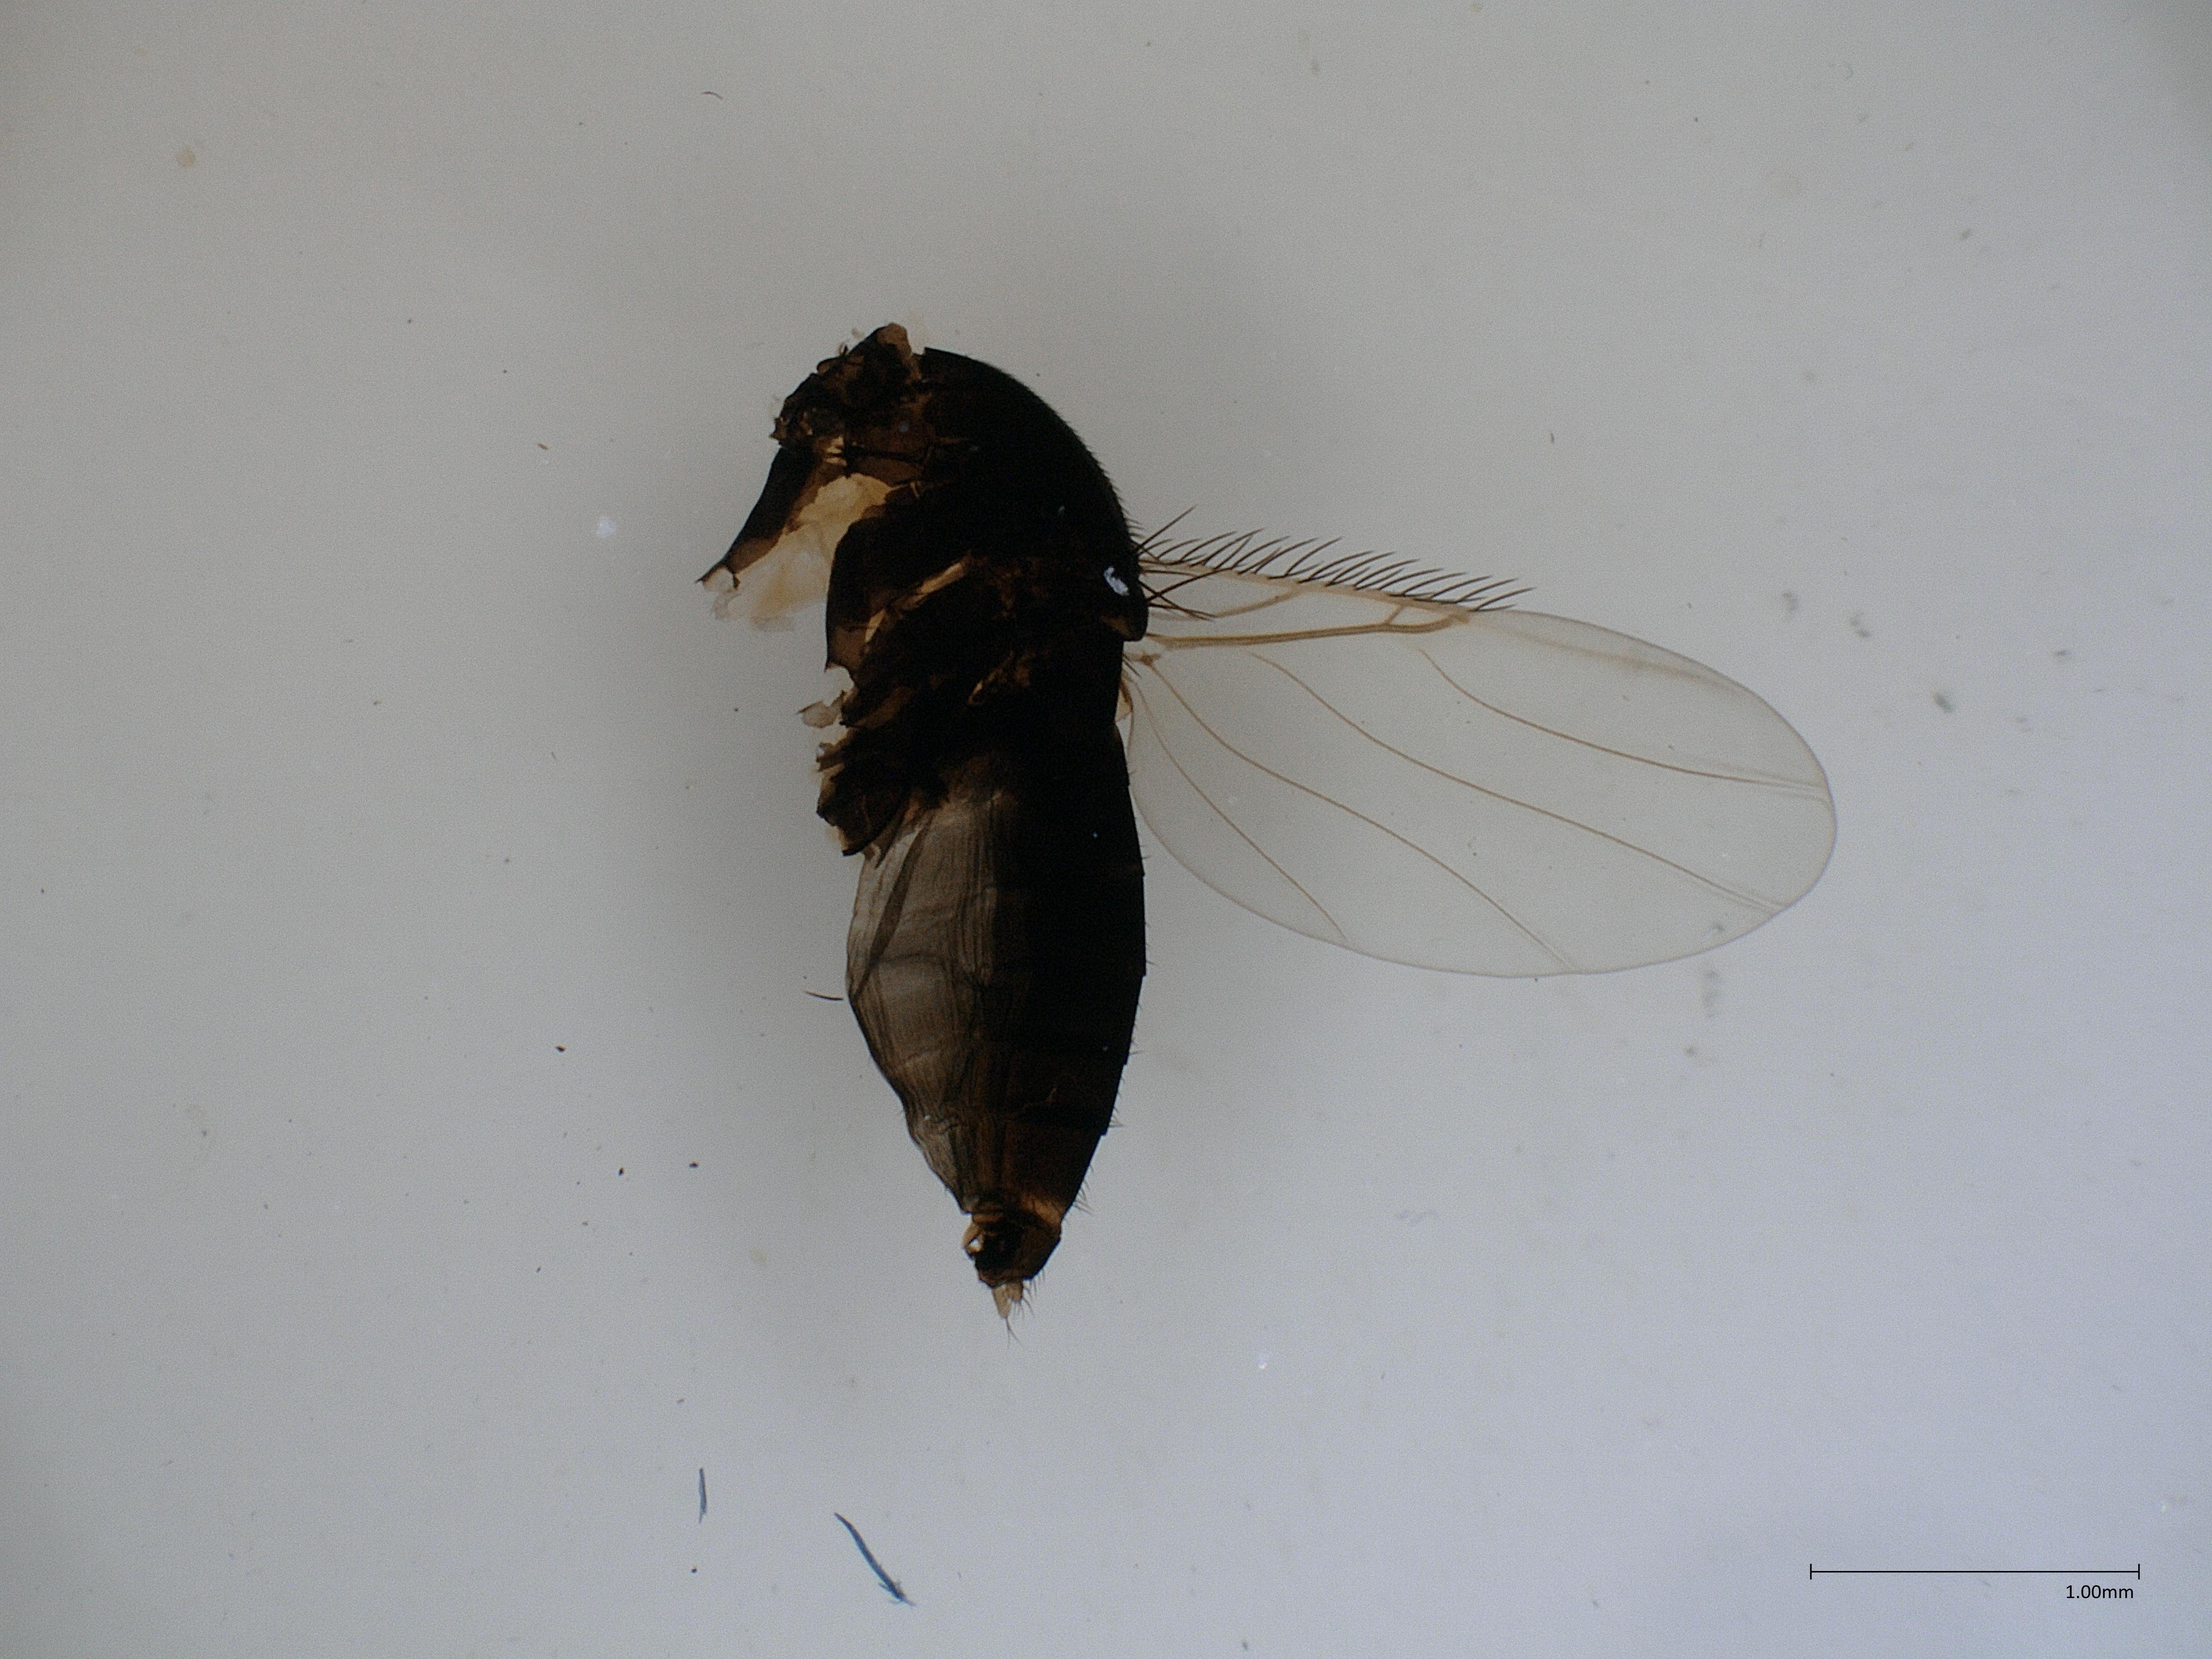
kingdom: Animalia
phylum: Arthropoda
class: Insecta
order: Diptera
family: Phoridae
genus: Megaselia
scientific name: Megaselia tenebricola
